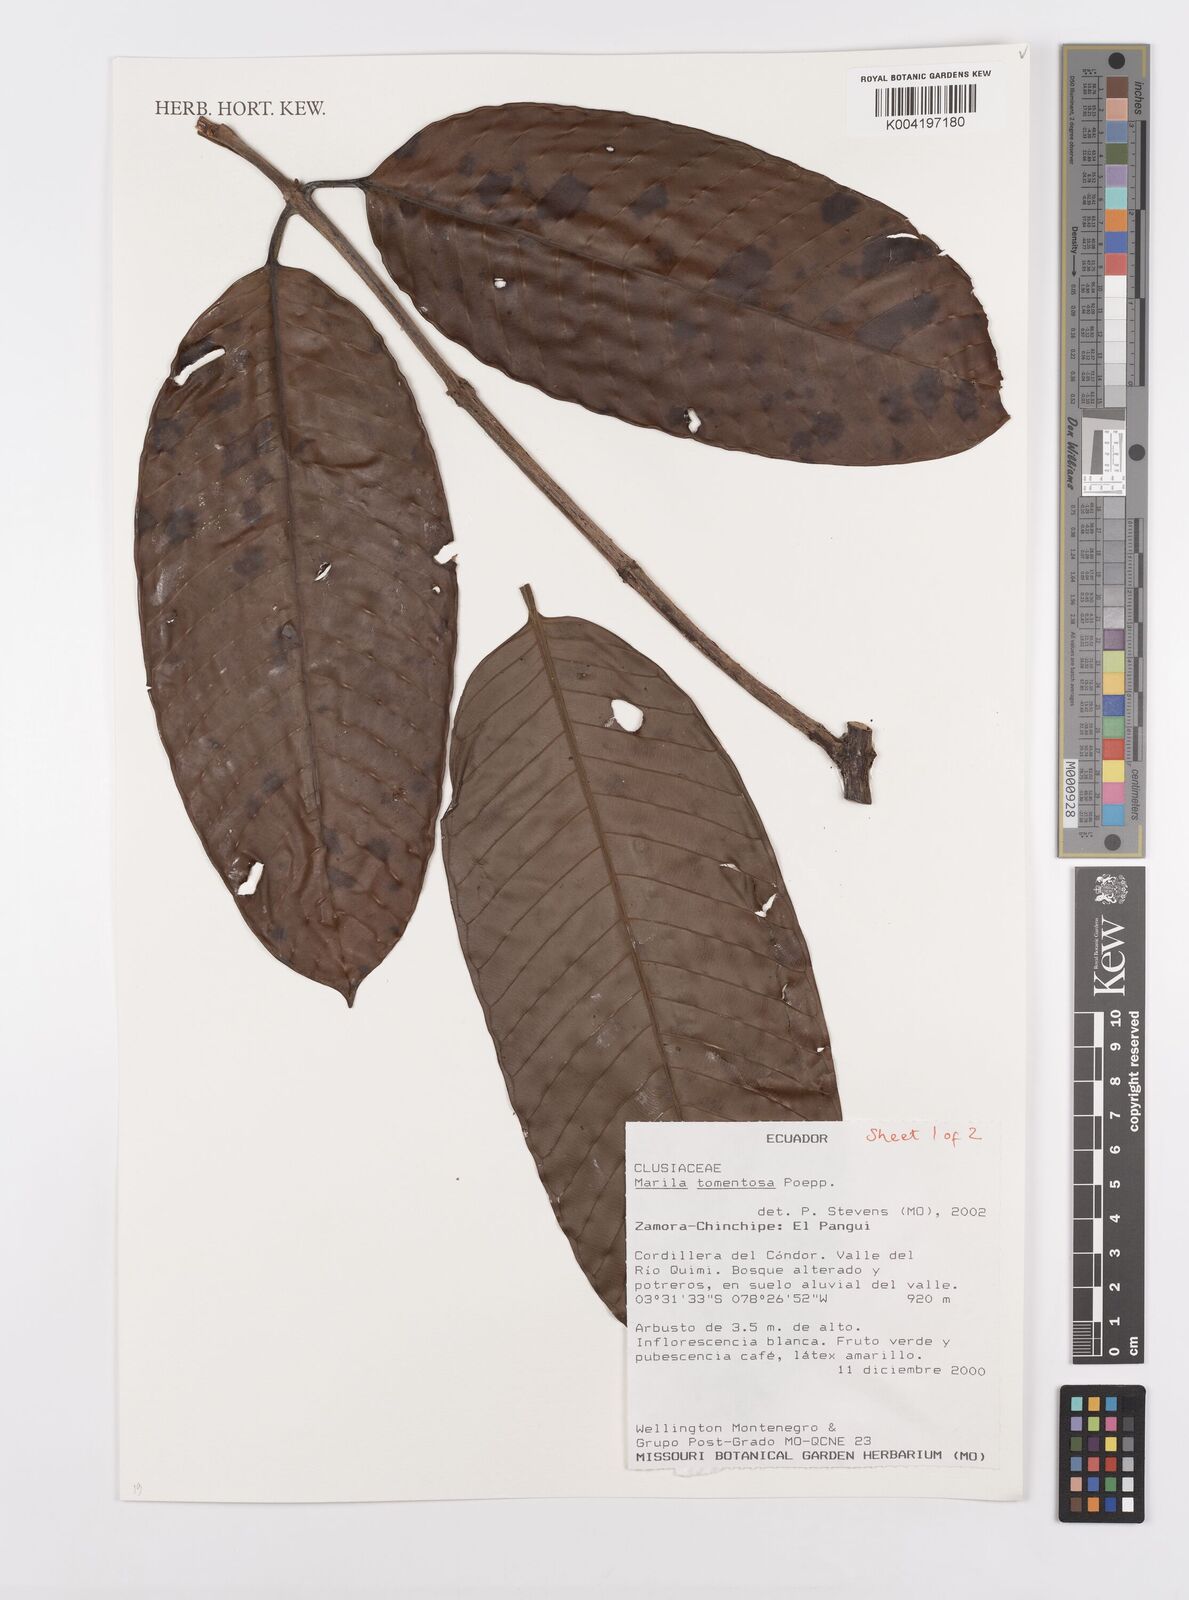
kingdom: Plantae
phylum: Tracheophyta
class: Magnoliopsida
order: Malpighiales
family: Calophyllaceae
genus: Marila
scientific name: Marila tomentosa
